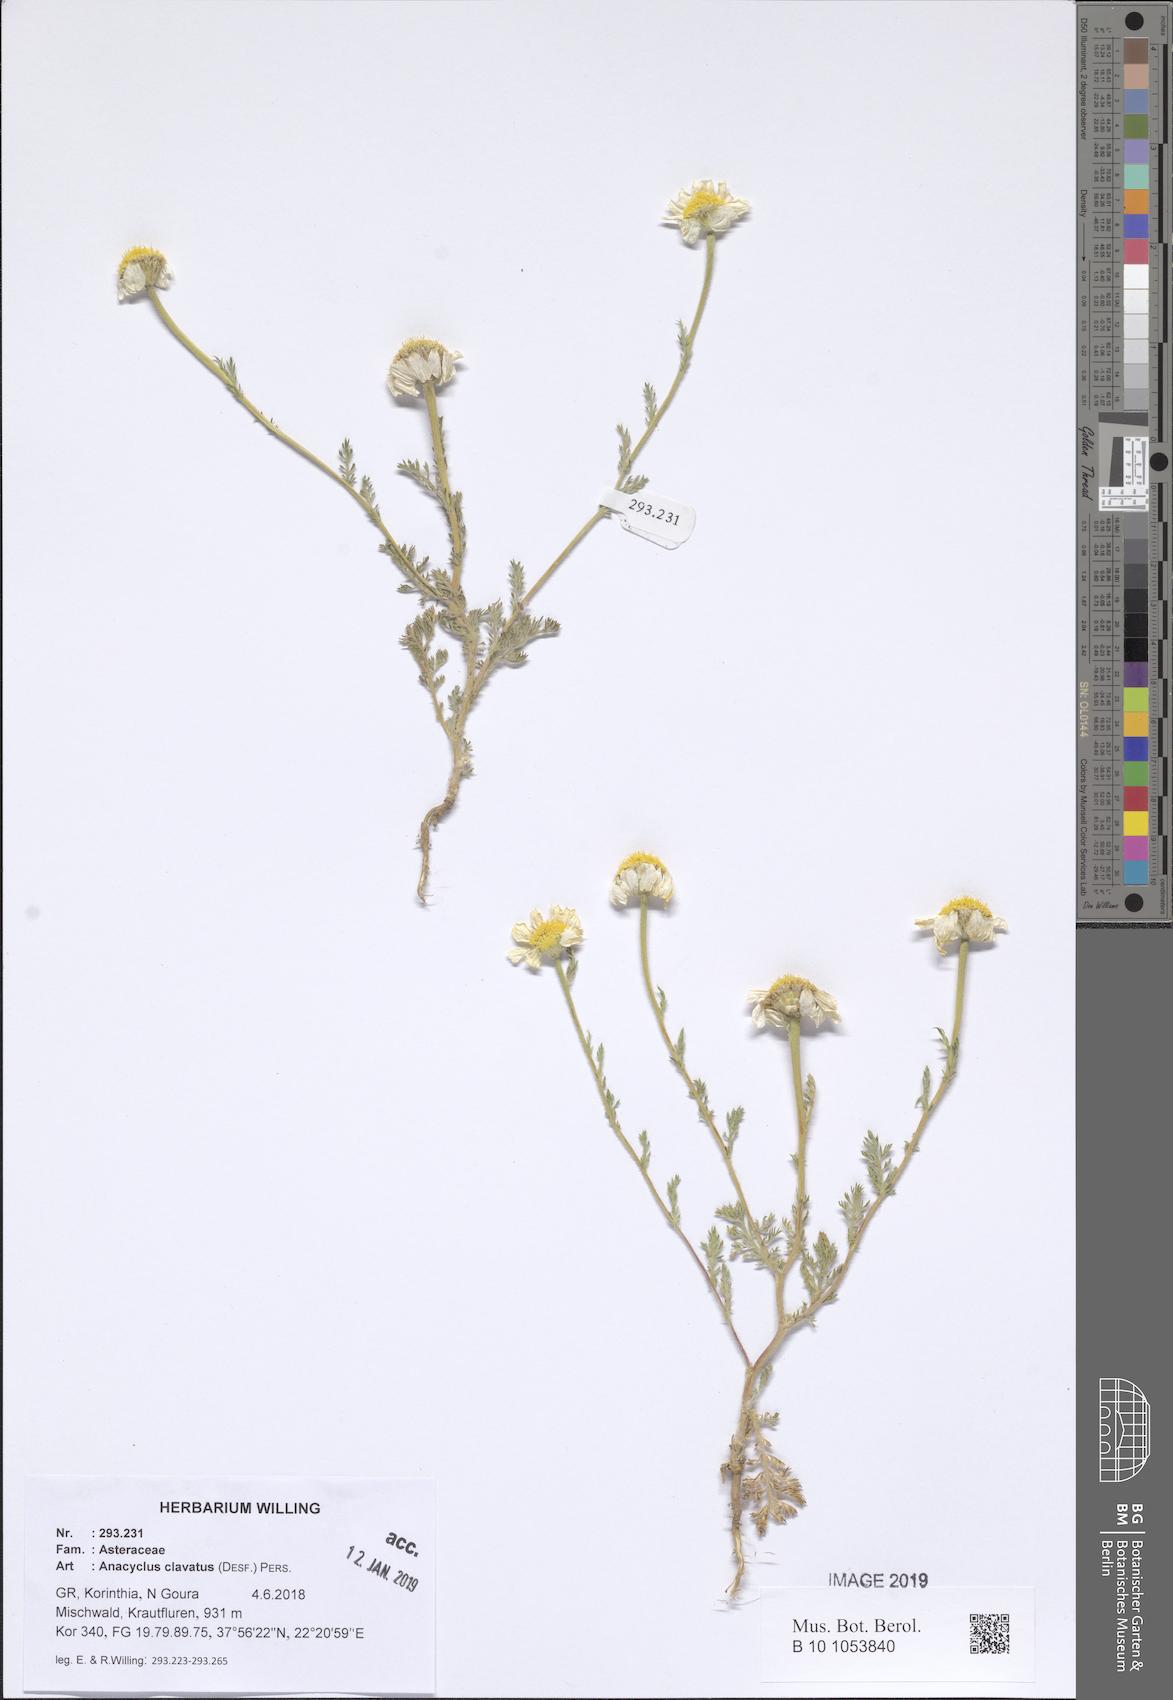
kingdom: Plantae
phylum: Tracheophyta
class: Magnoliopsida
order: Asterales
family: Asteraceae
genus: Anacyclus
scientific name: Anacyclus clavatus
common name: Whitebuttons
